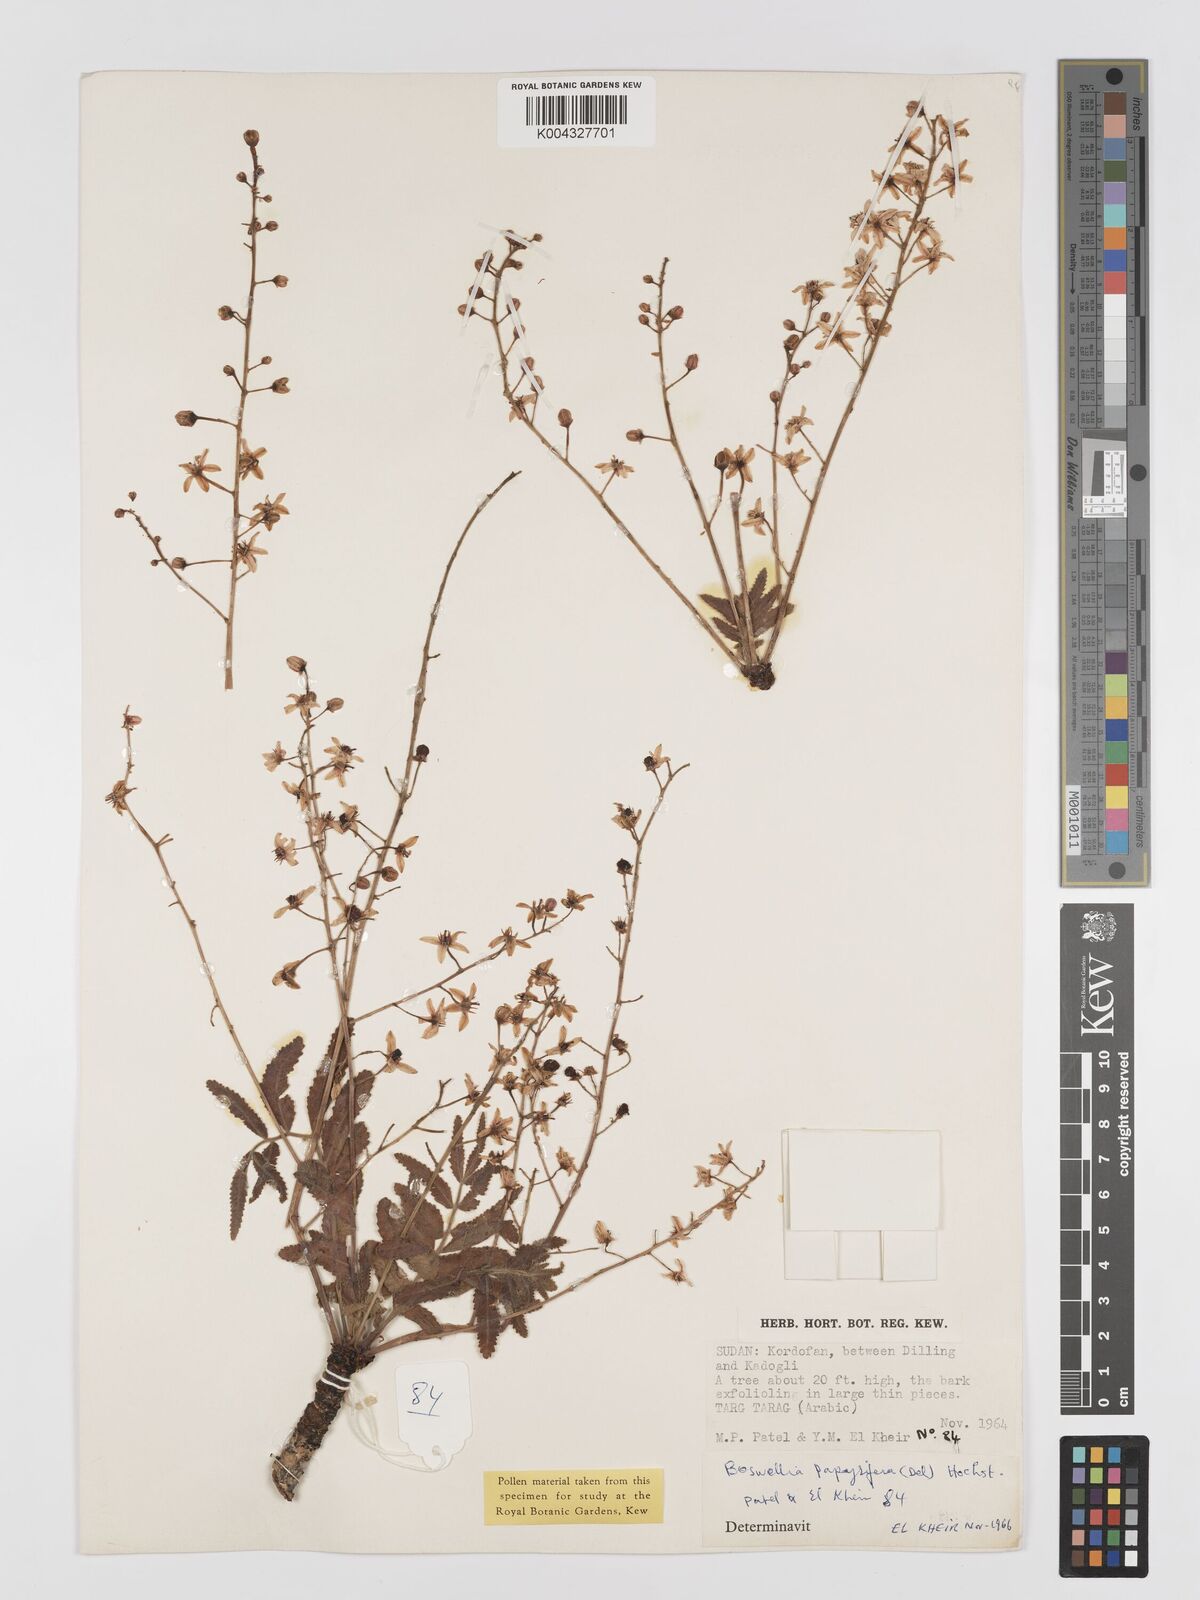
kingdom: Plantae
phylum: Tracheophyta
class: Magnoliopsida
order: Sapindales
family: Burseraceae
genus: Boswellia
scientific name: Boswellia papyrifera
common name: Sudanese frankincense
